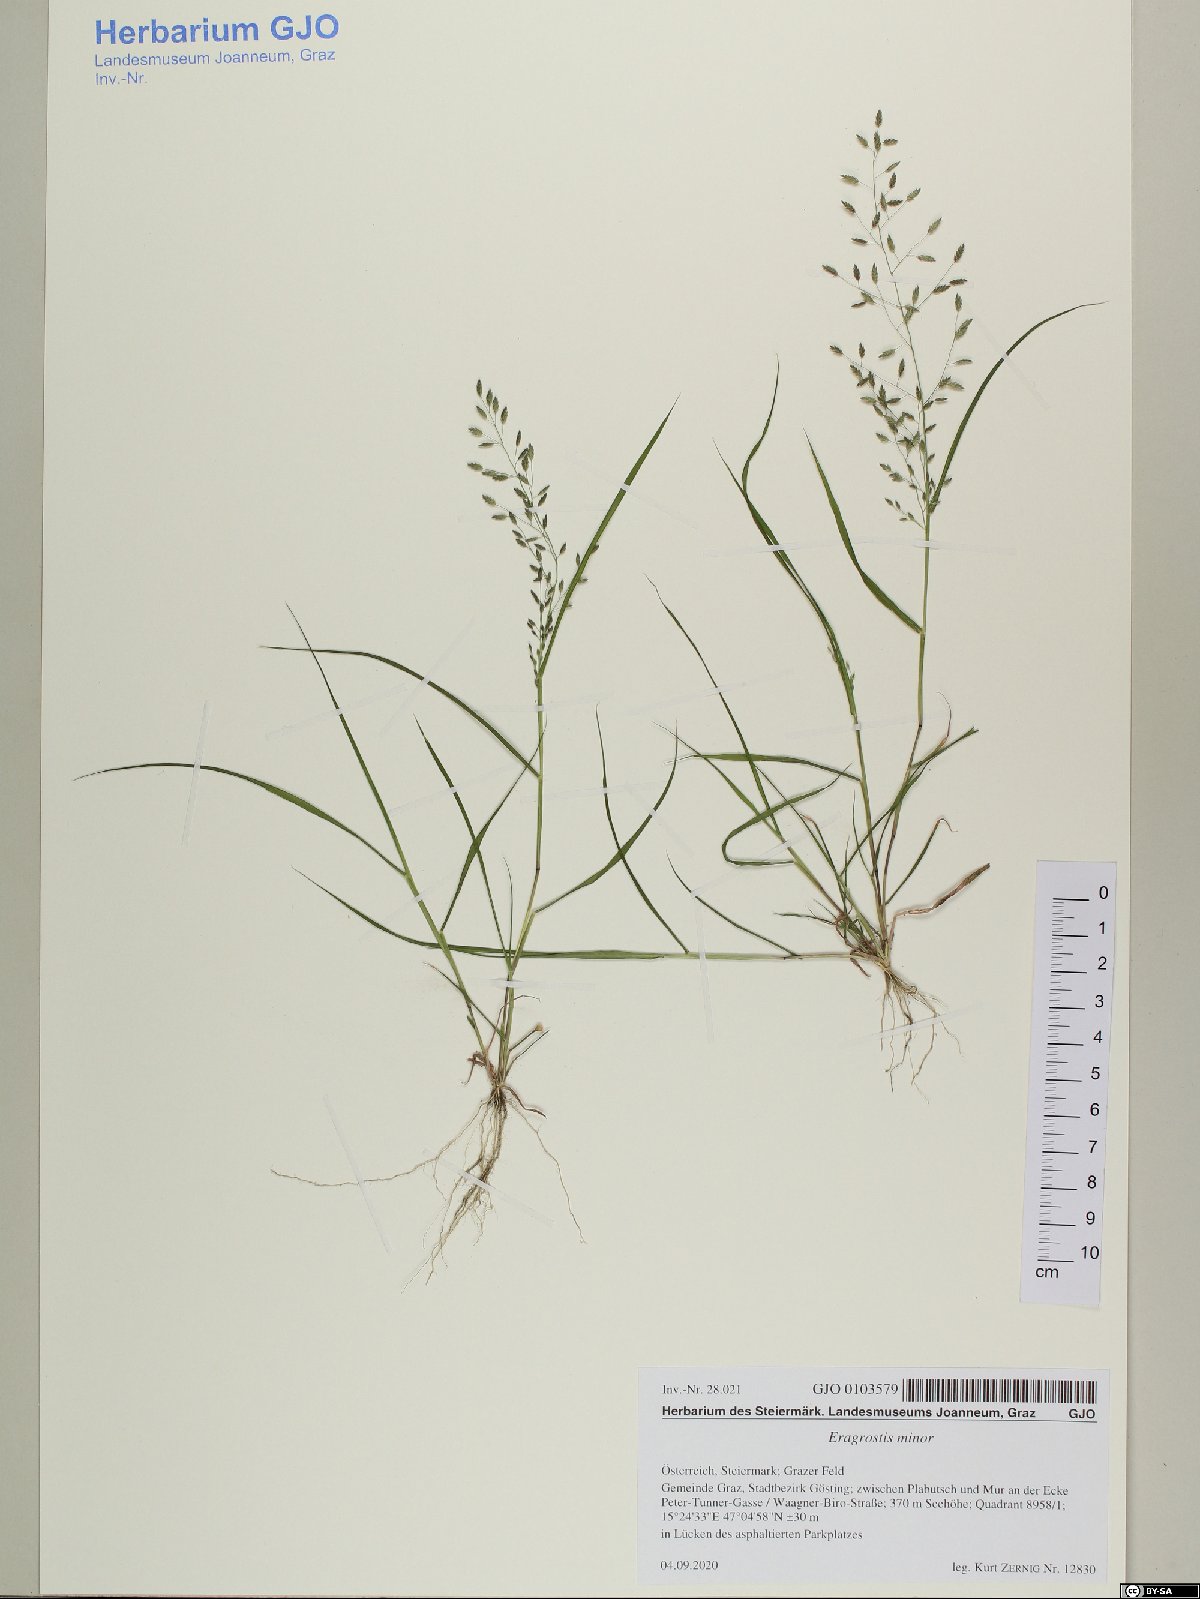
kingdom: Plantae
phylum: Tracheophyta
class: Liliopsida
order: Poales
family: Poaceae
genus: Eragrostis
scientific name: Eragrostis minor
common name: Small love-grass
